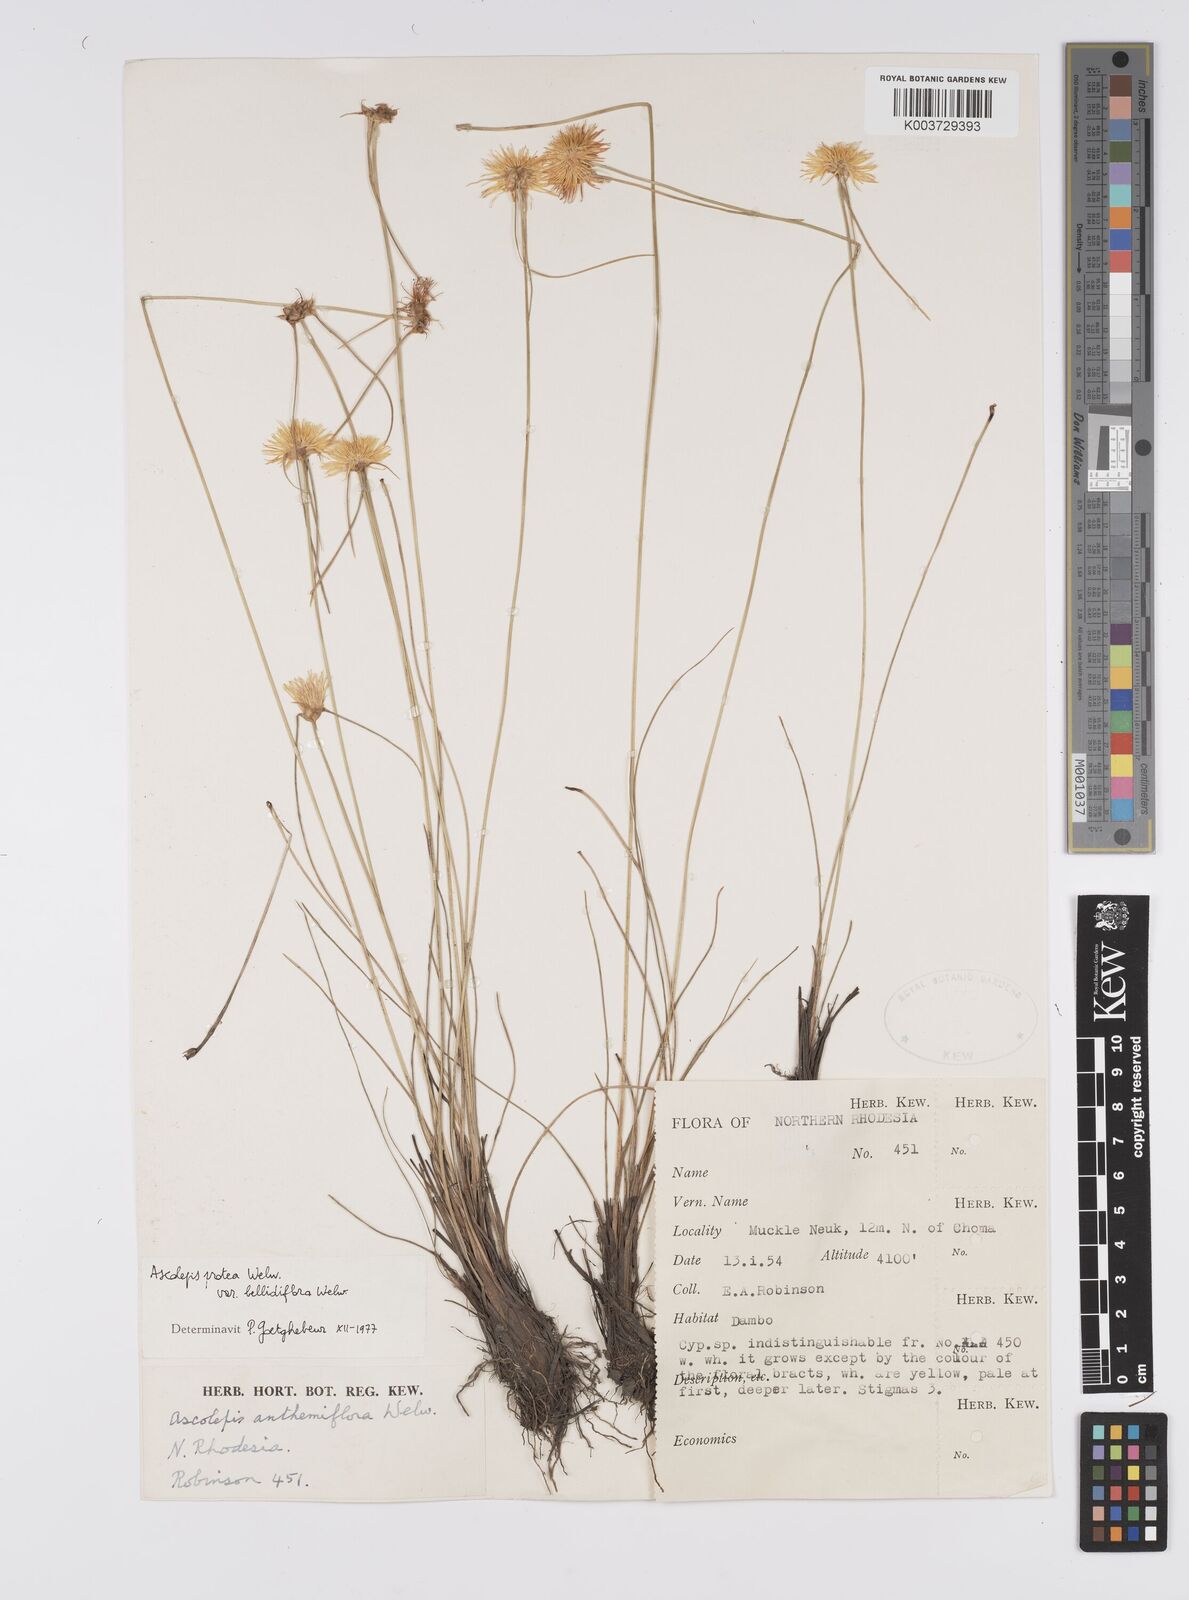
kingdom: Plantae
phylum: Tracheophyta
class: Liliopsida
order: Poales
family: Cyperaceae
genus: Cyperus
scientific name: Cyperus proteus
